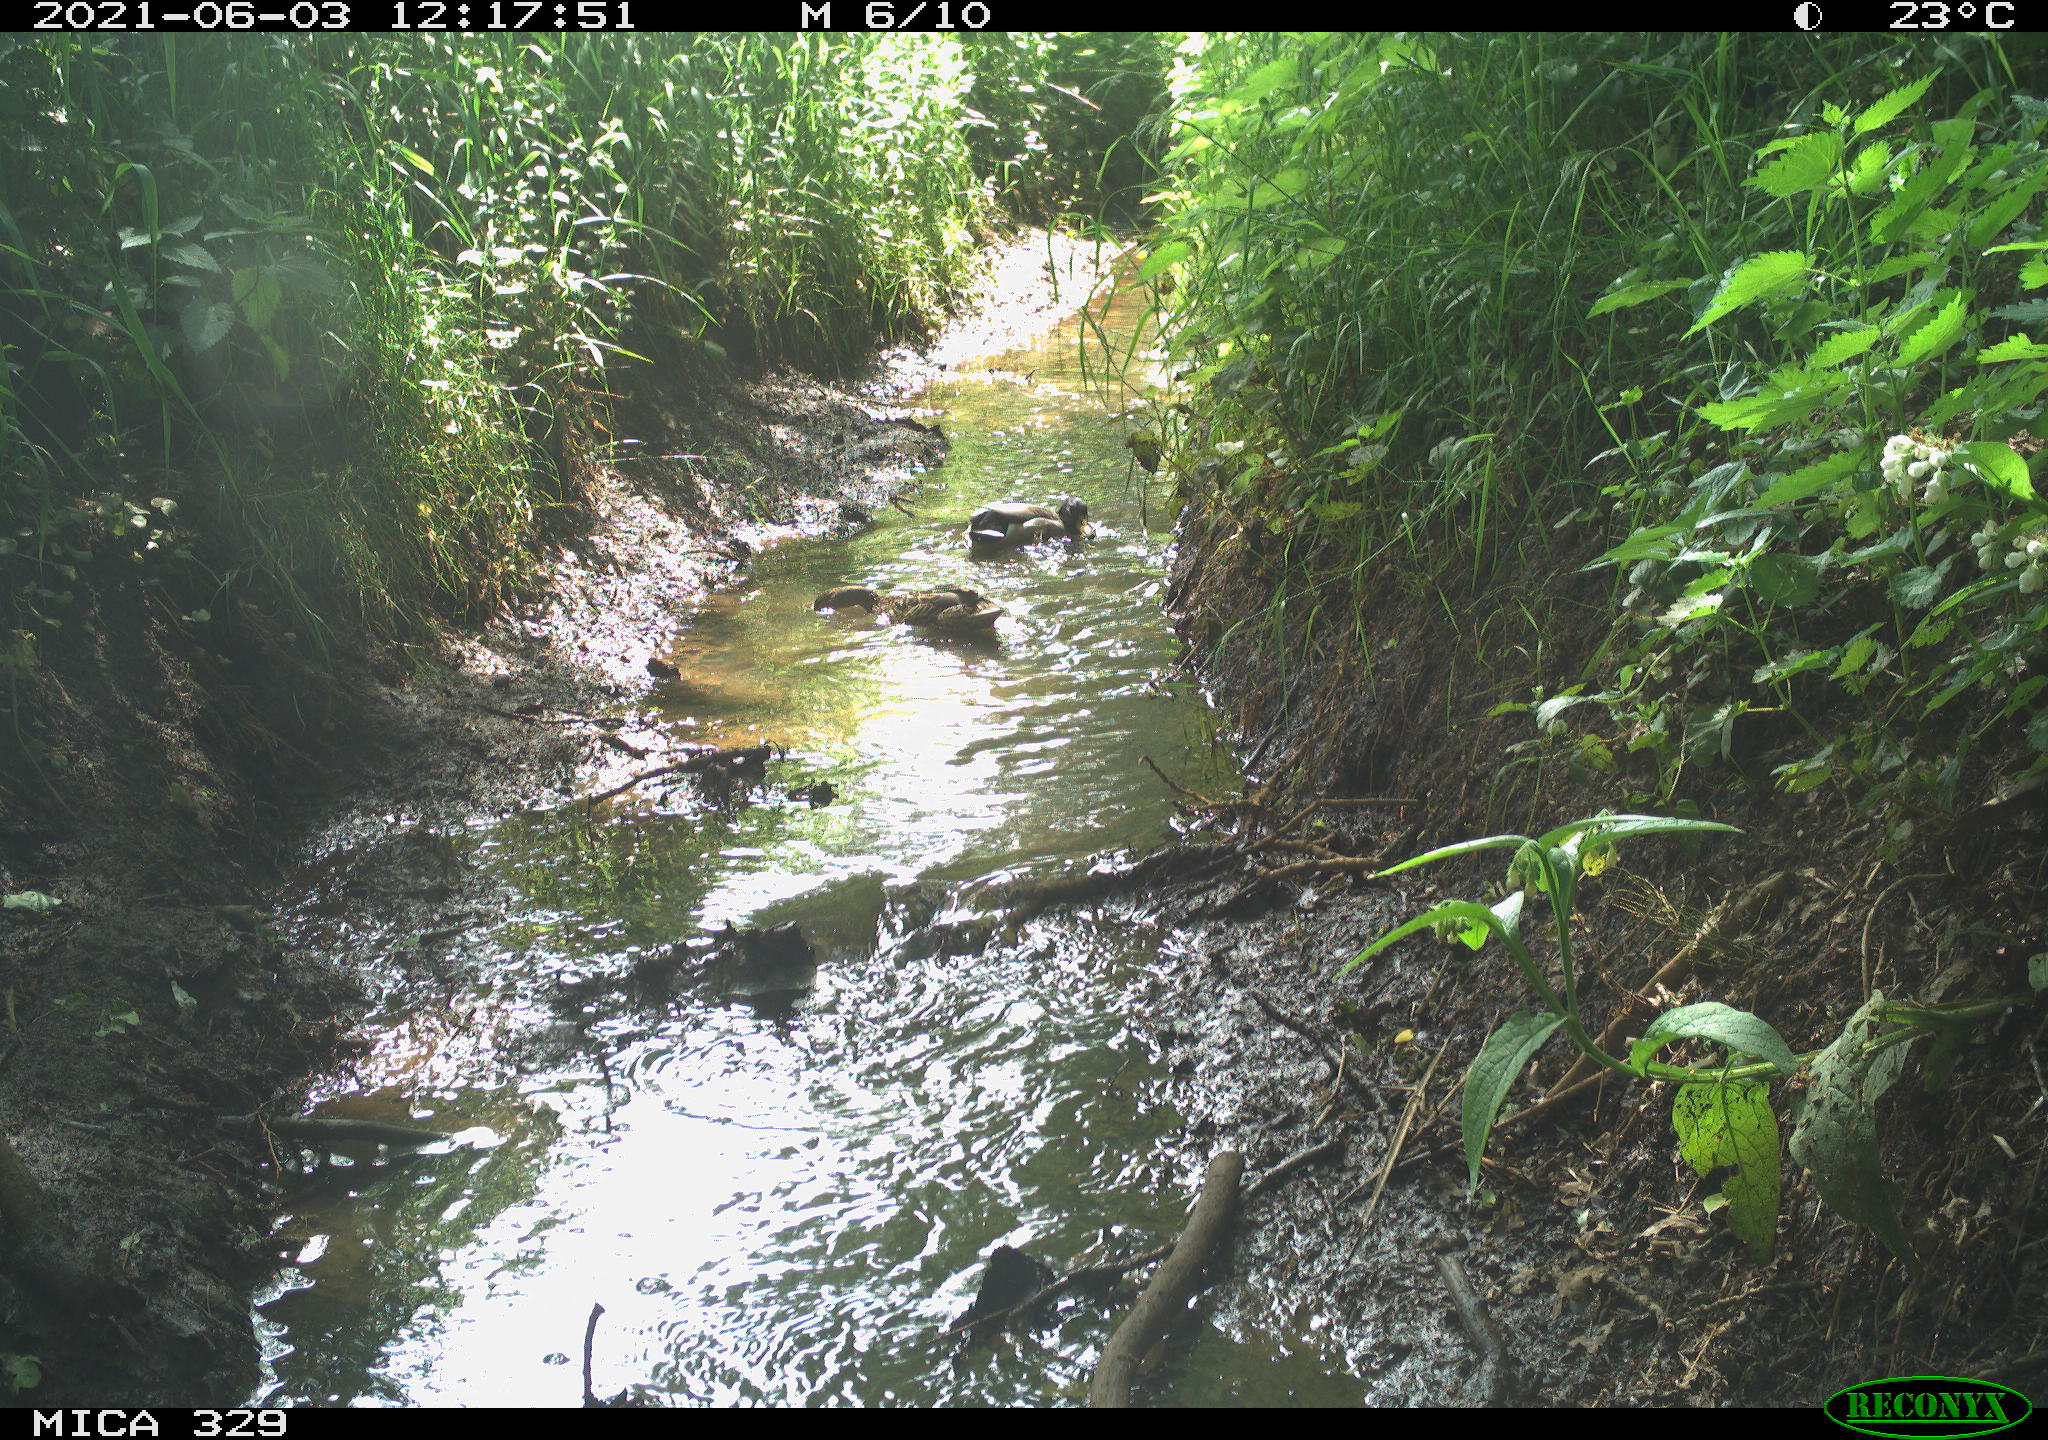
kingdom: Animalia
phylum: Chordata
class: Aves
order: Anseriformes
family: Anatidae
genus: Anas
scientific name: Anas platyrhynchos
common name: Mallard
